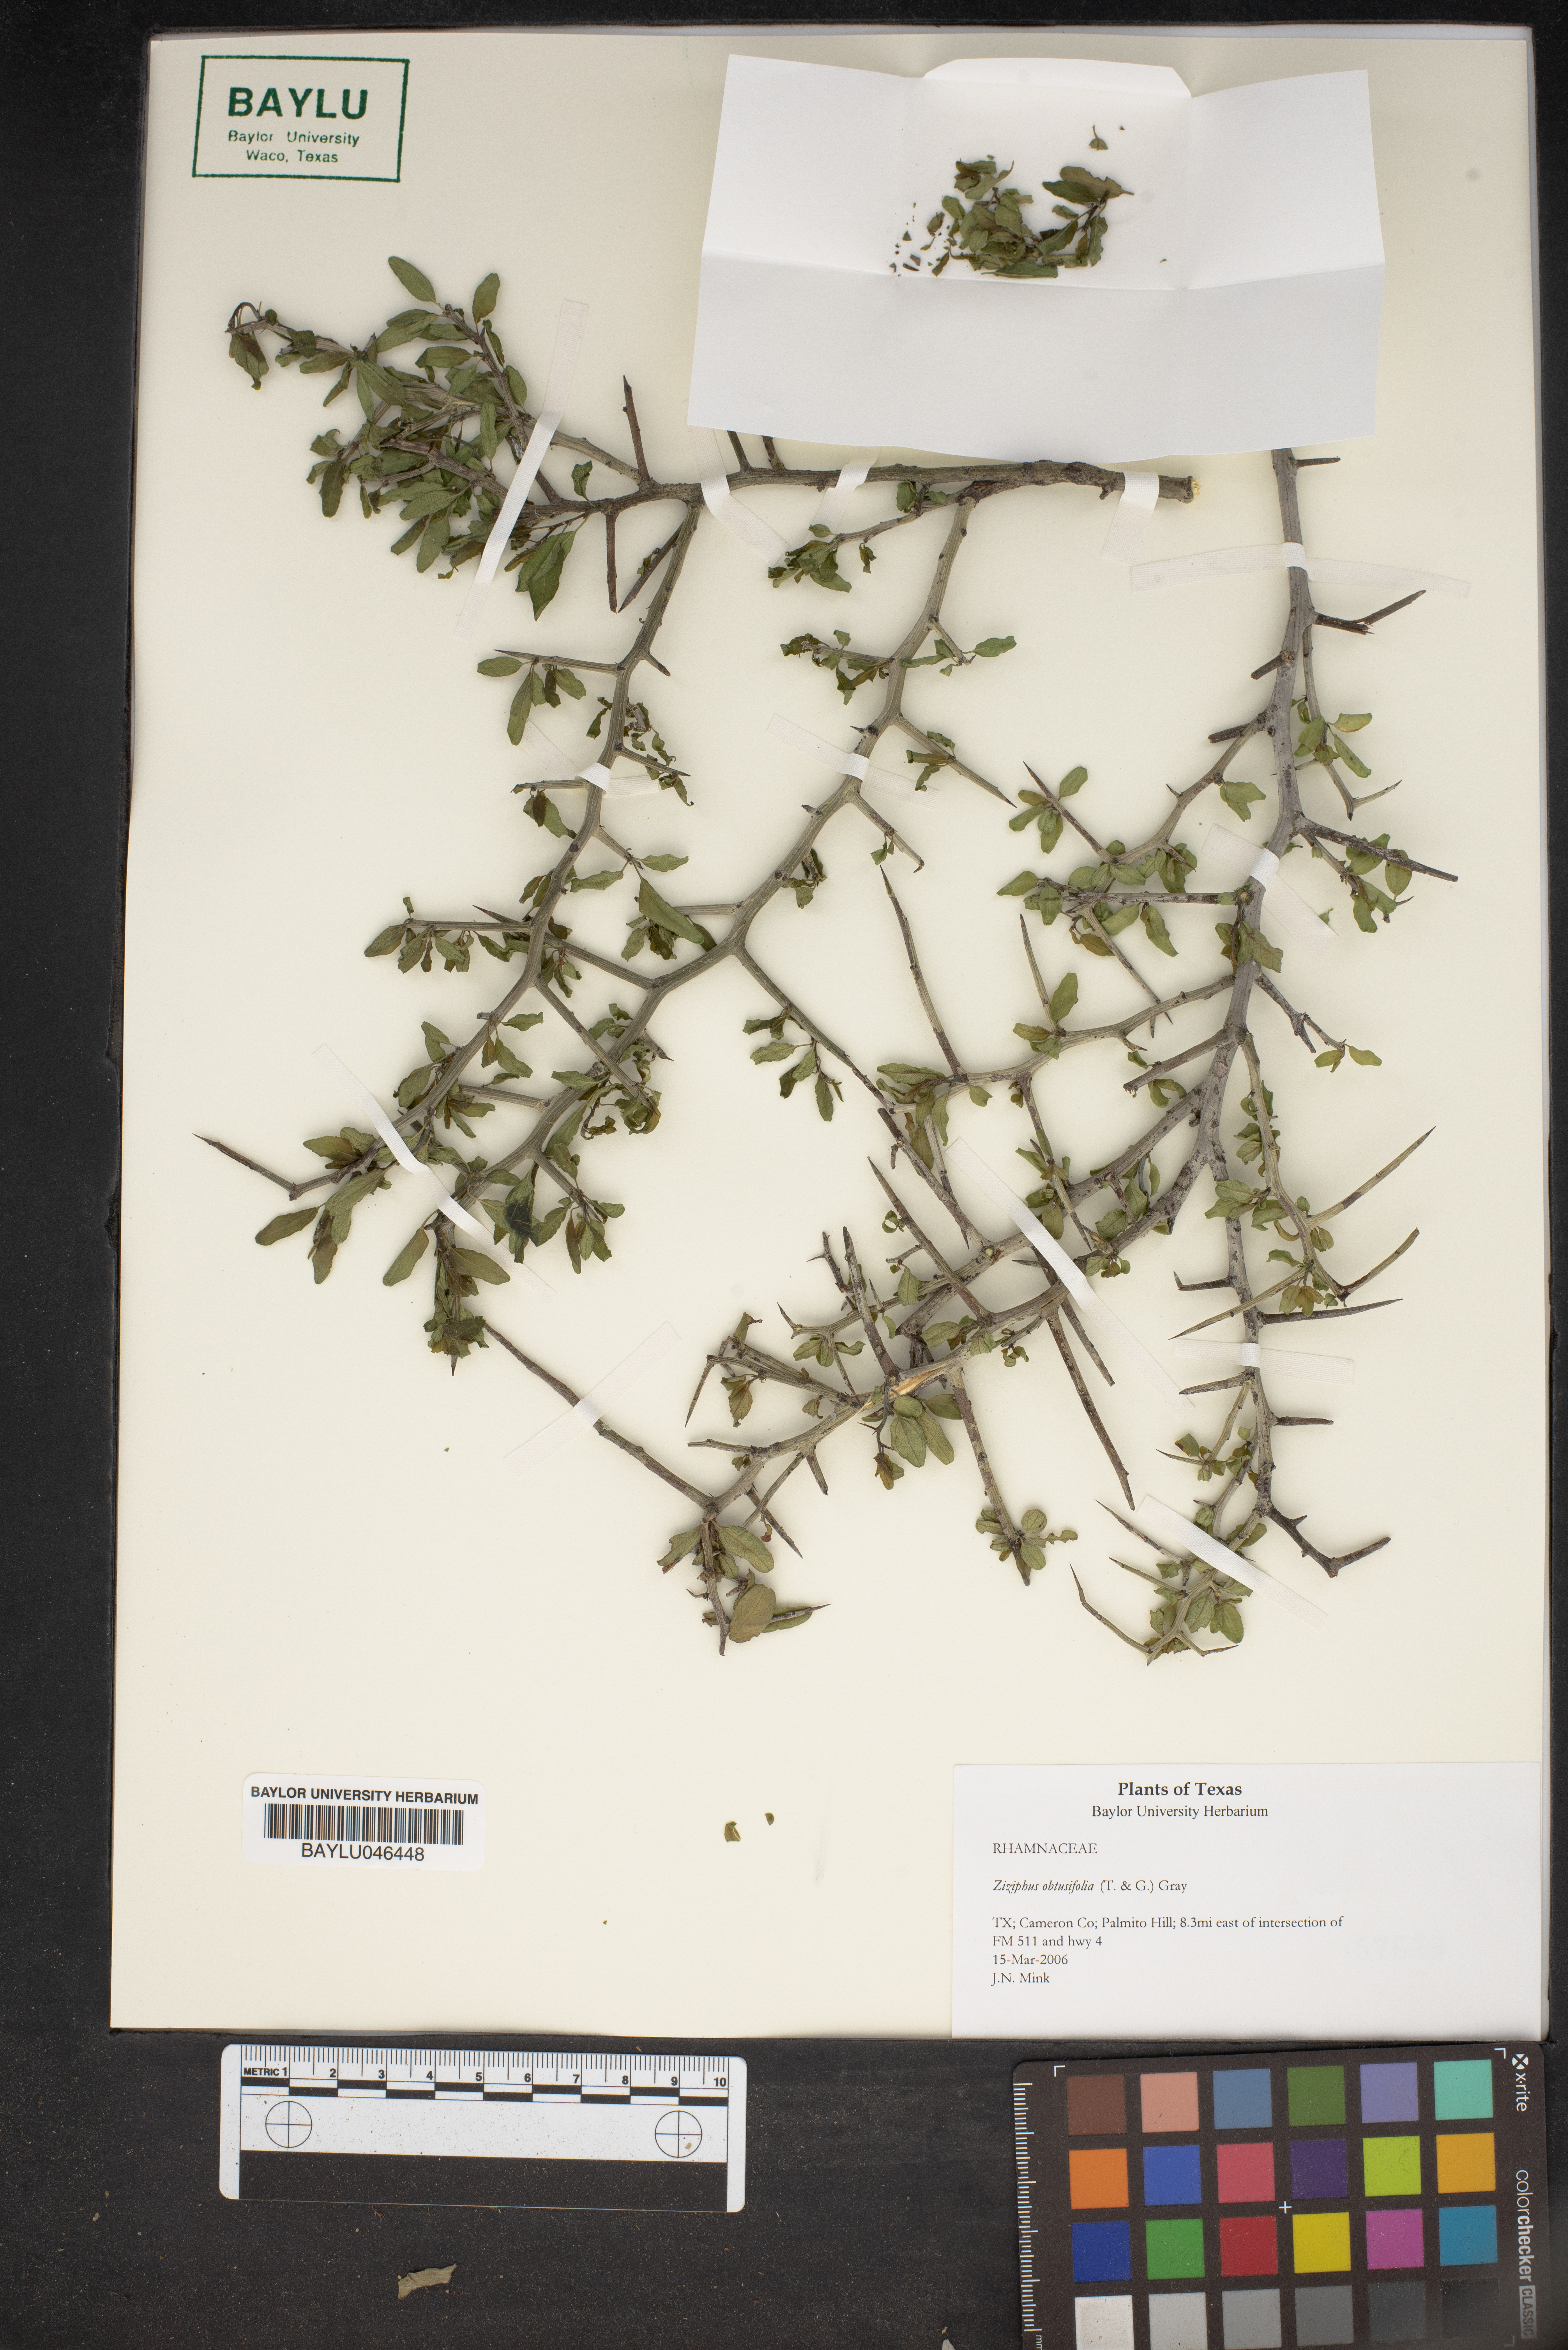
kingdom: Plantae
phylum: Tracheophyta
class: Magnoliopsida
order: Rosales
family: Rhamnaceae
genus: Sarcomphalus
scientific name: Sarcomphalus obtusifolius
